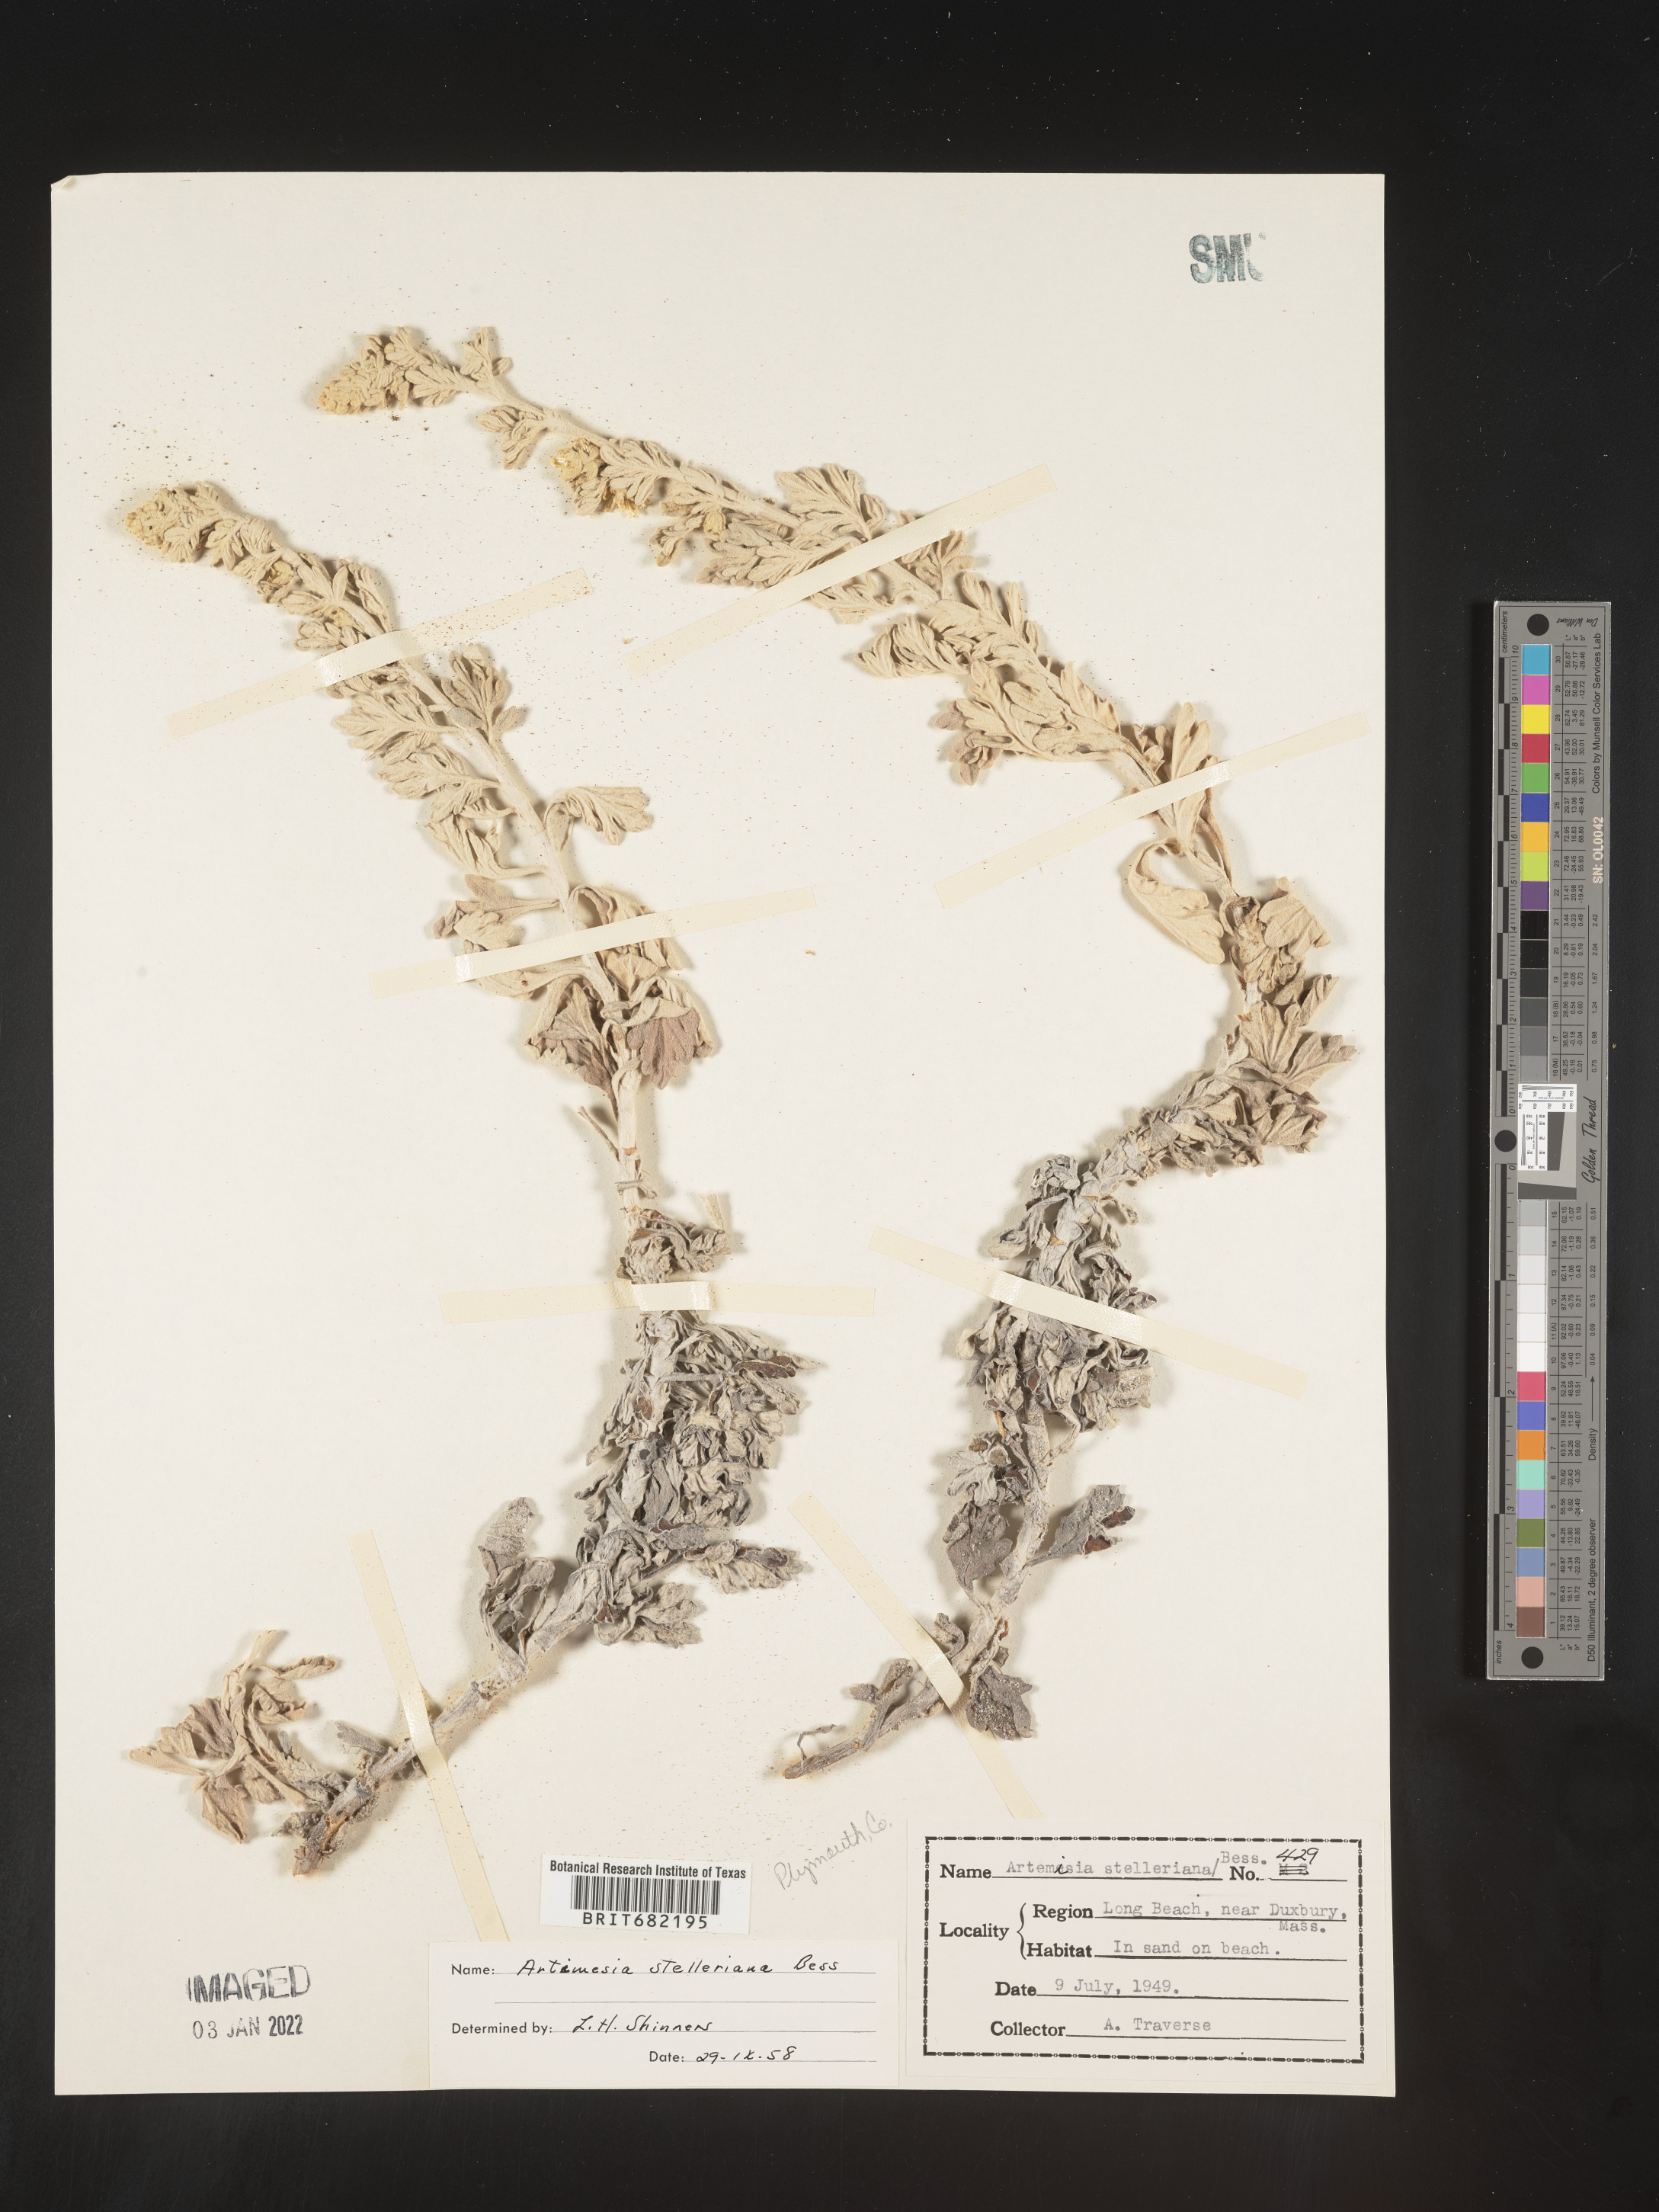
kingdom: Plantae
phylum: Tracheophyta
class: Magnoliopsida
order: Asterales
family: Asteraceae
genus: Artemisia
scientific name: Artemisia stelleriana
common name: Beach wormwood
